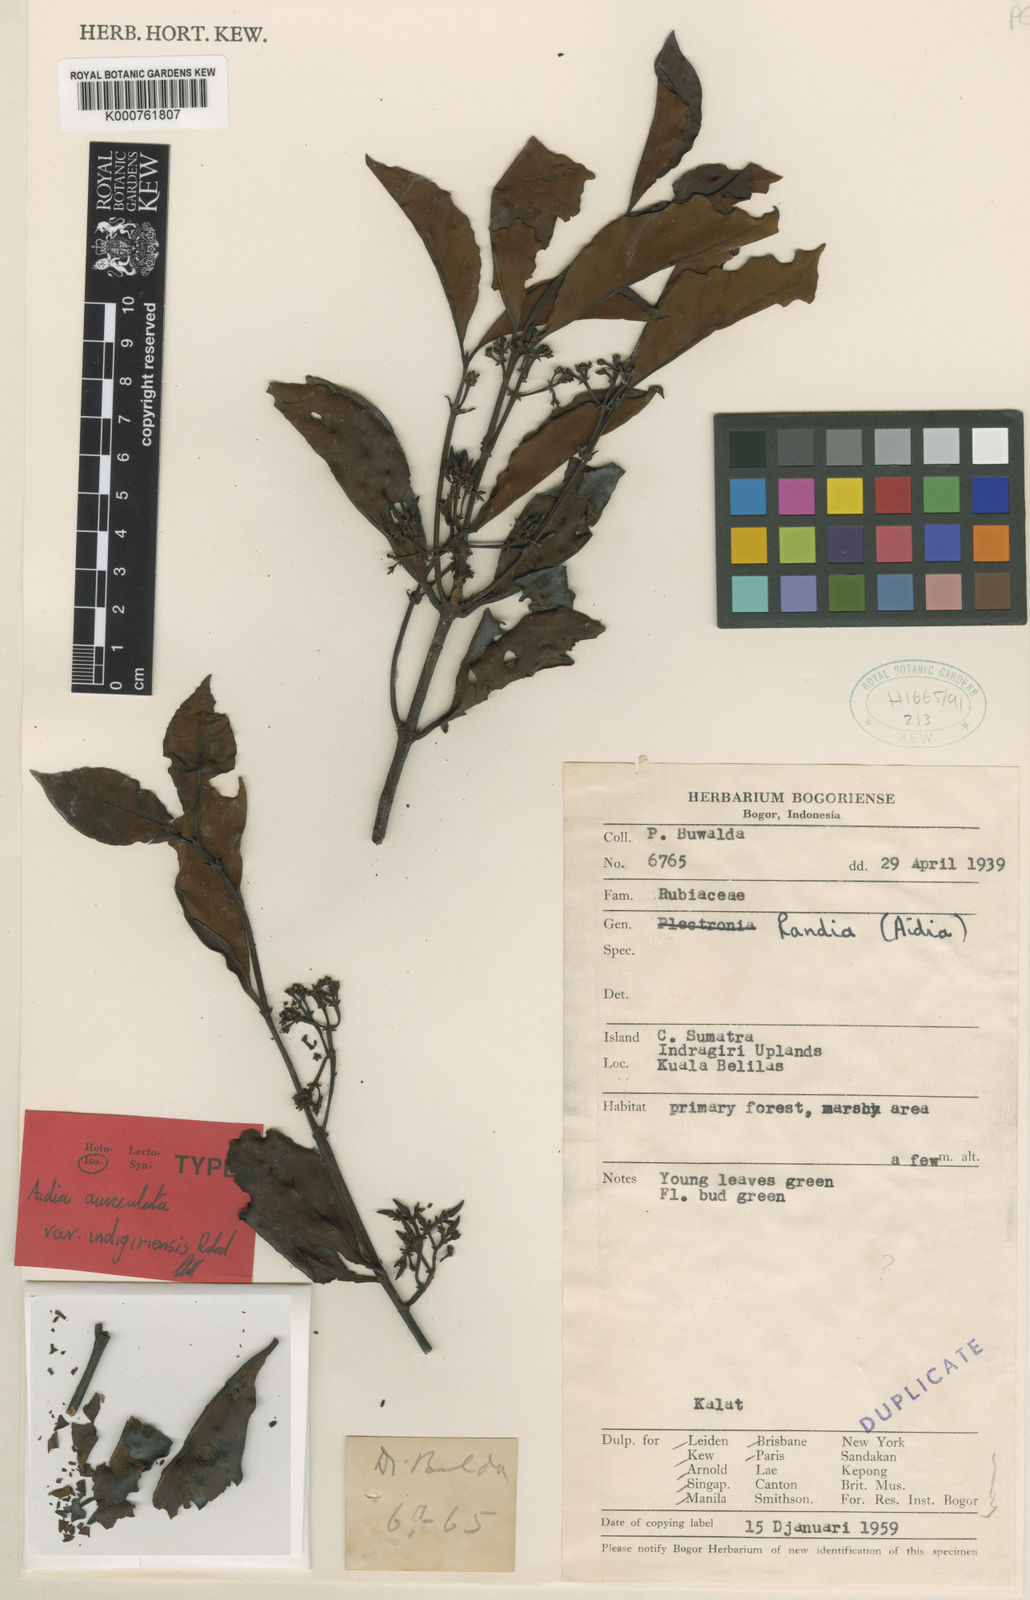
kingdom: Plantae
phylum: Tracheophyta
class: Magnoliopsida
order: Gentianales
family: Rubiaceae
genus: Aidia
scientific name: Aidia corymbosa
